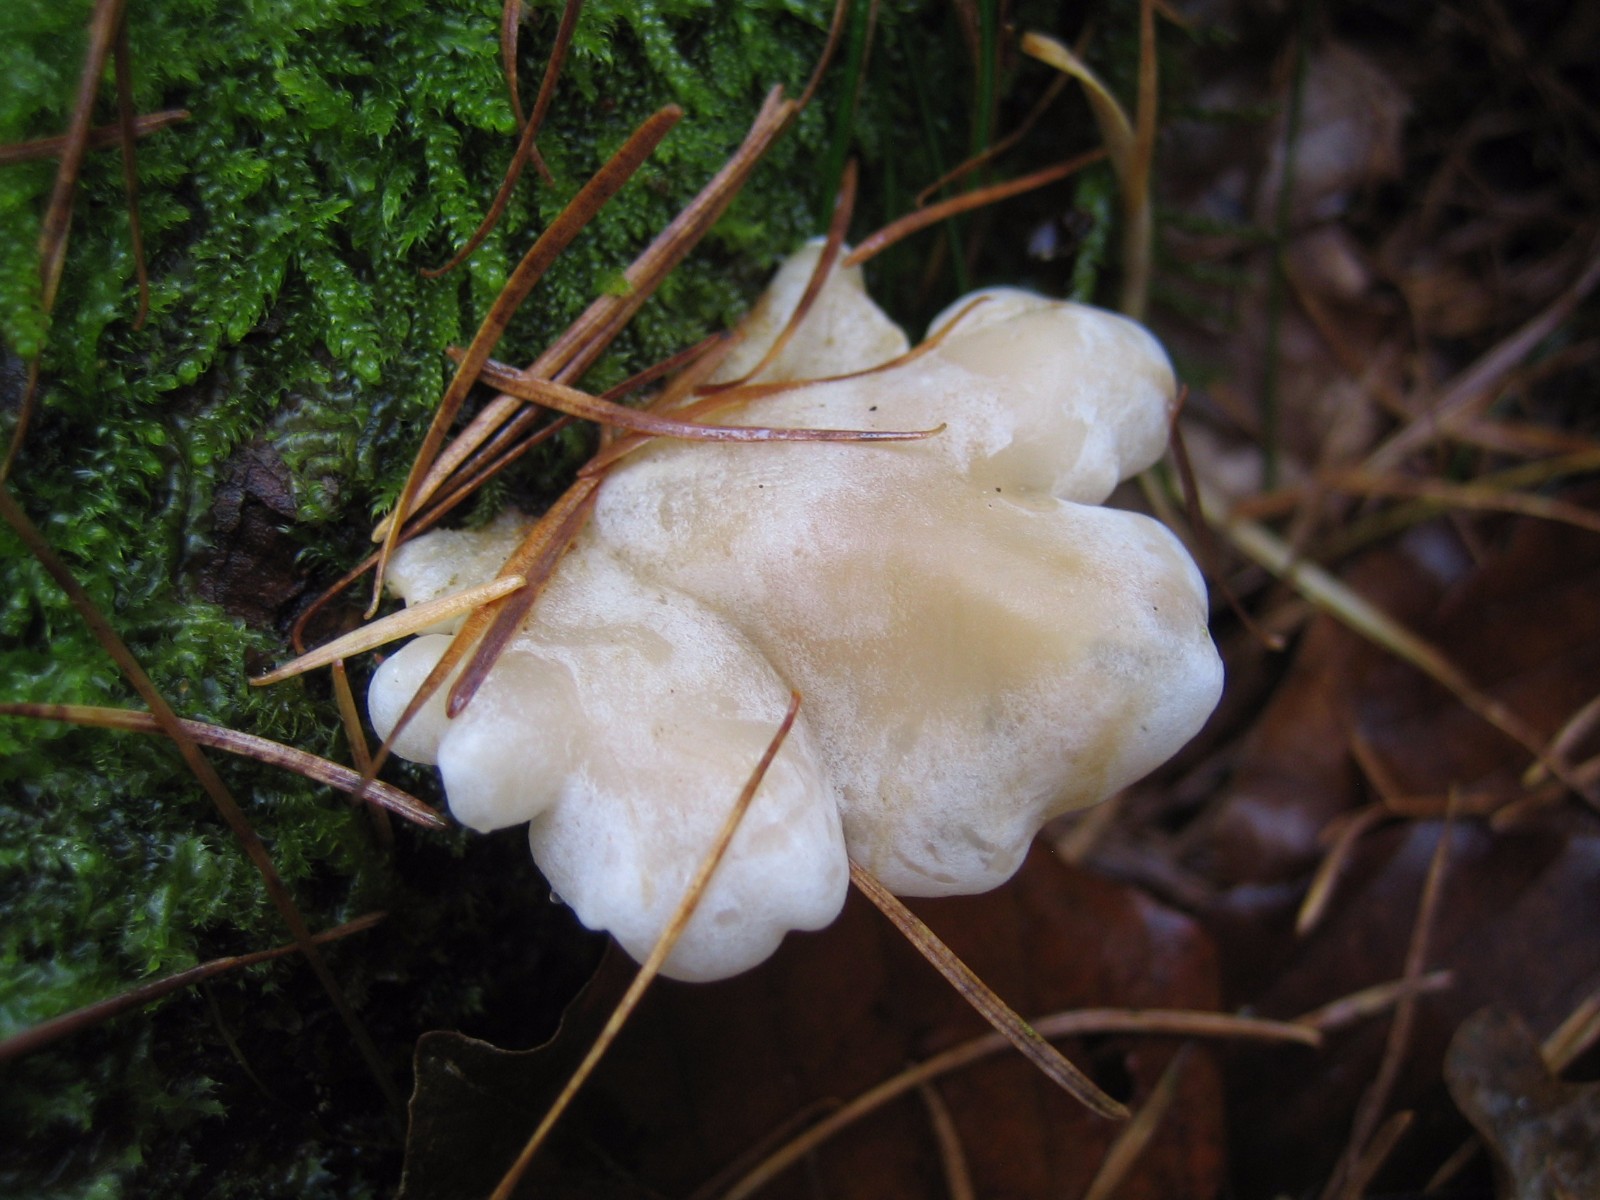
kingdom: Fungi
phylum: Basidiomycota
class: Agaricomycetes
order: Agaricales
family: Mycenaceae
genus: Panellus
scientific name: Panellus mitis
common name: mild epaulethat
